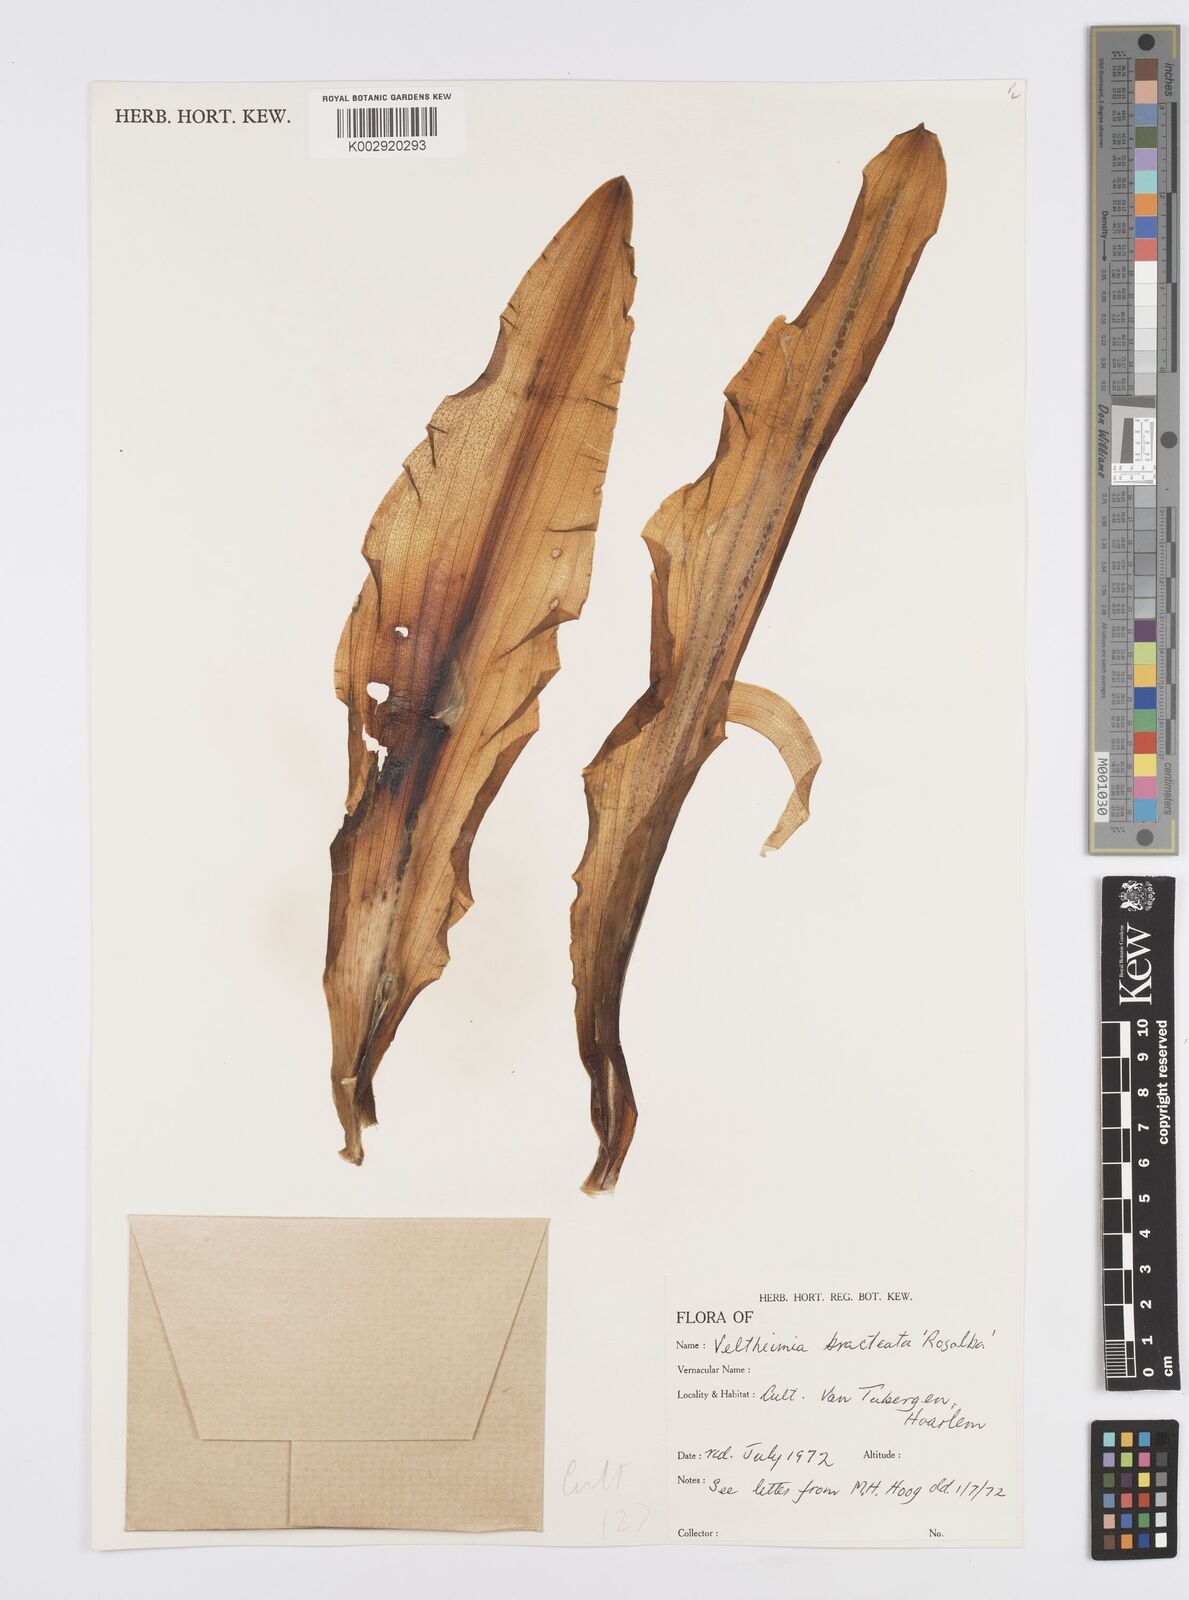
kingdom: Plantae
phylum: Tracheophyta
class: Liliopsida
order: Asparagales
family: Asparagaceae
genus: Veltheimia
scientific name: Veltheimia bracteata
